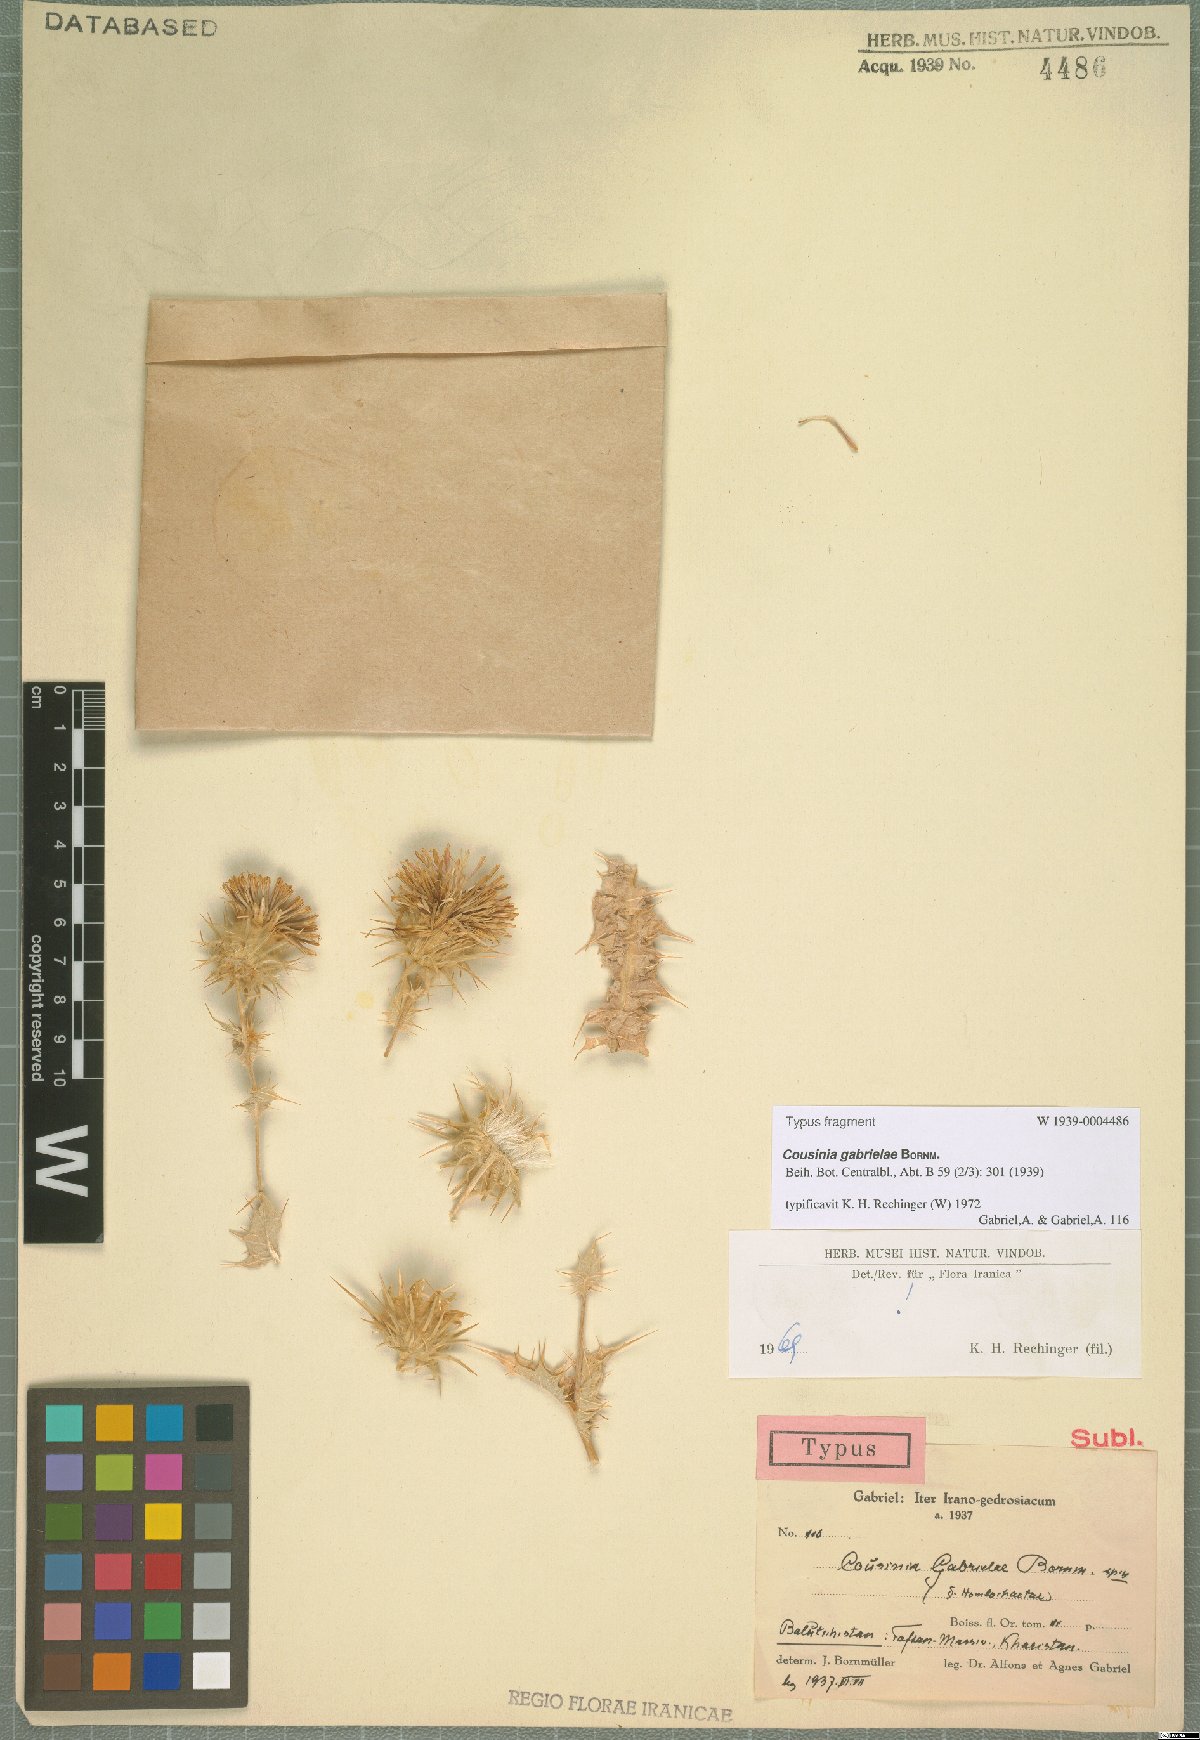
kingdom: Plantae
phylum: Tracheophyta
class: Magnoliopsida
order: Asterales
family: Asteraceae
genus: Cousinia
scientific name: Cousinia gabrielae
